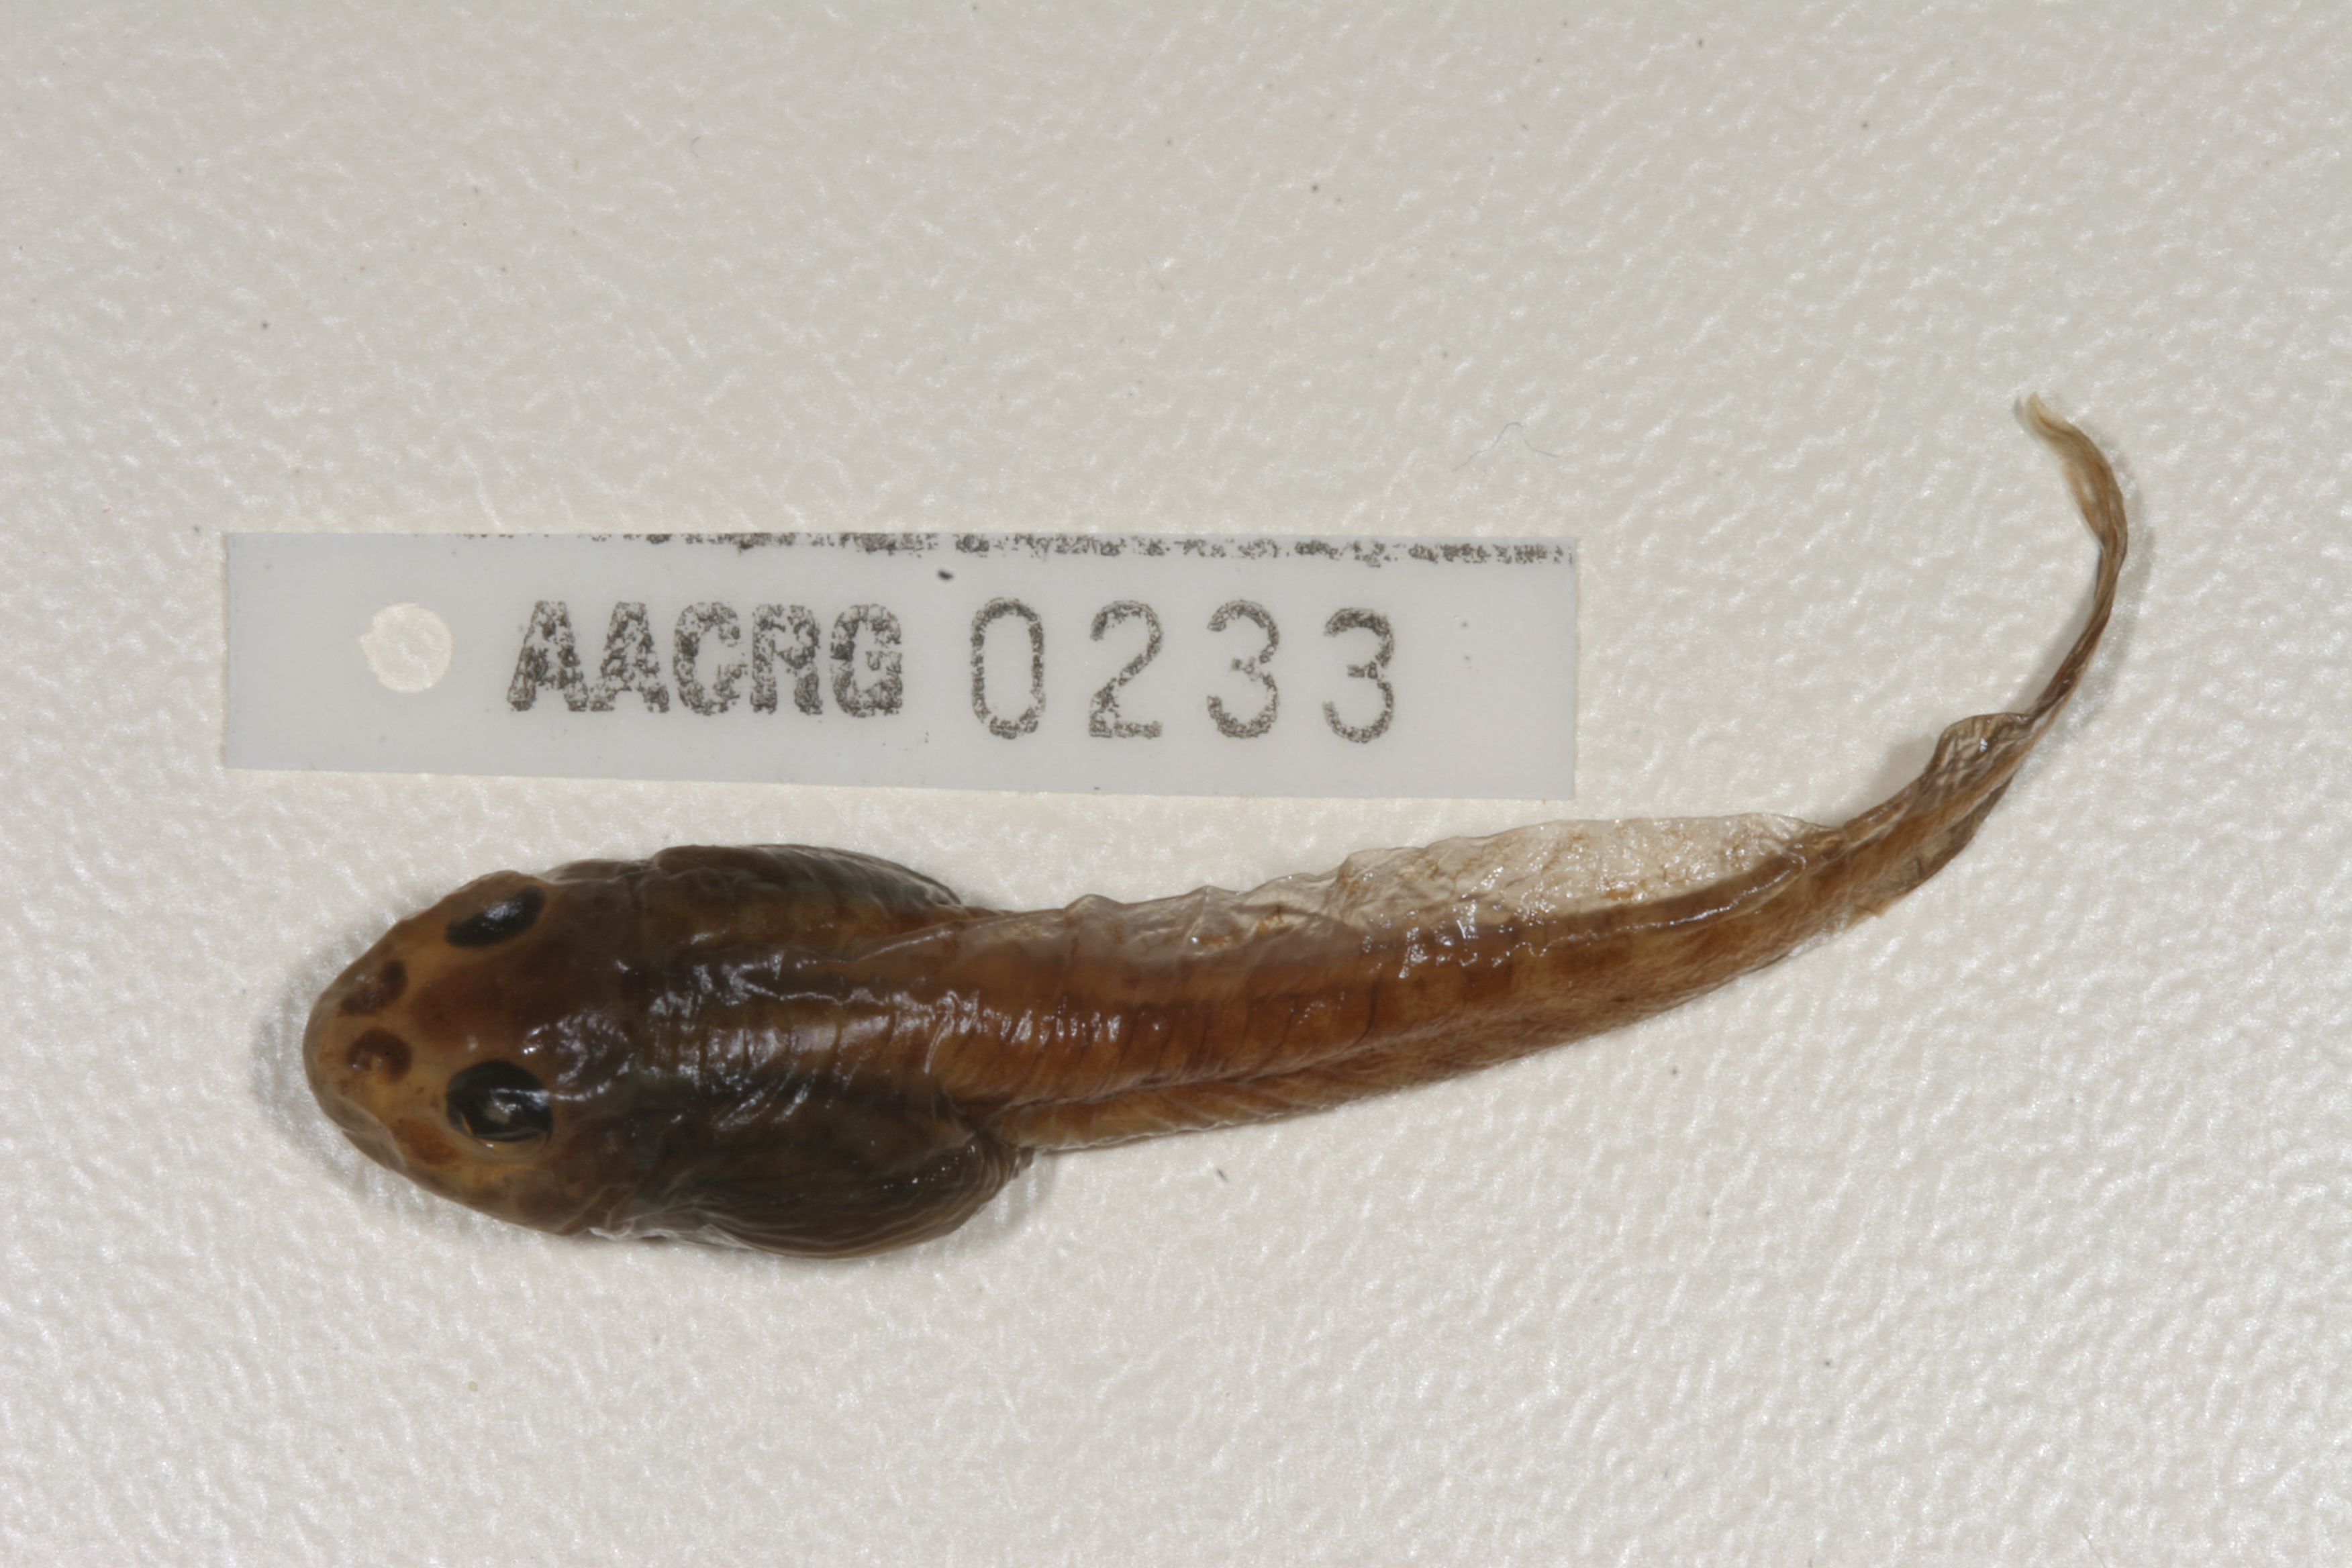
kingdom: Animalia
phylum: Chordata
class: Amphibia
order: Anura
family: Pyxicephalidae
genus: Amietia
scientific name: Amietia angolensis
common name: Dusky-throated frog
